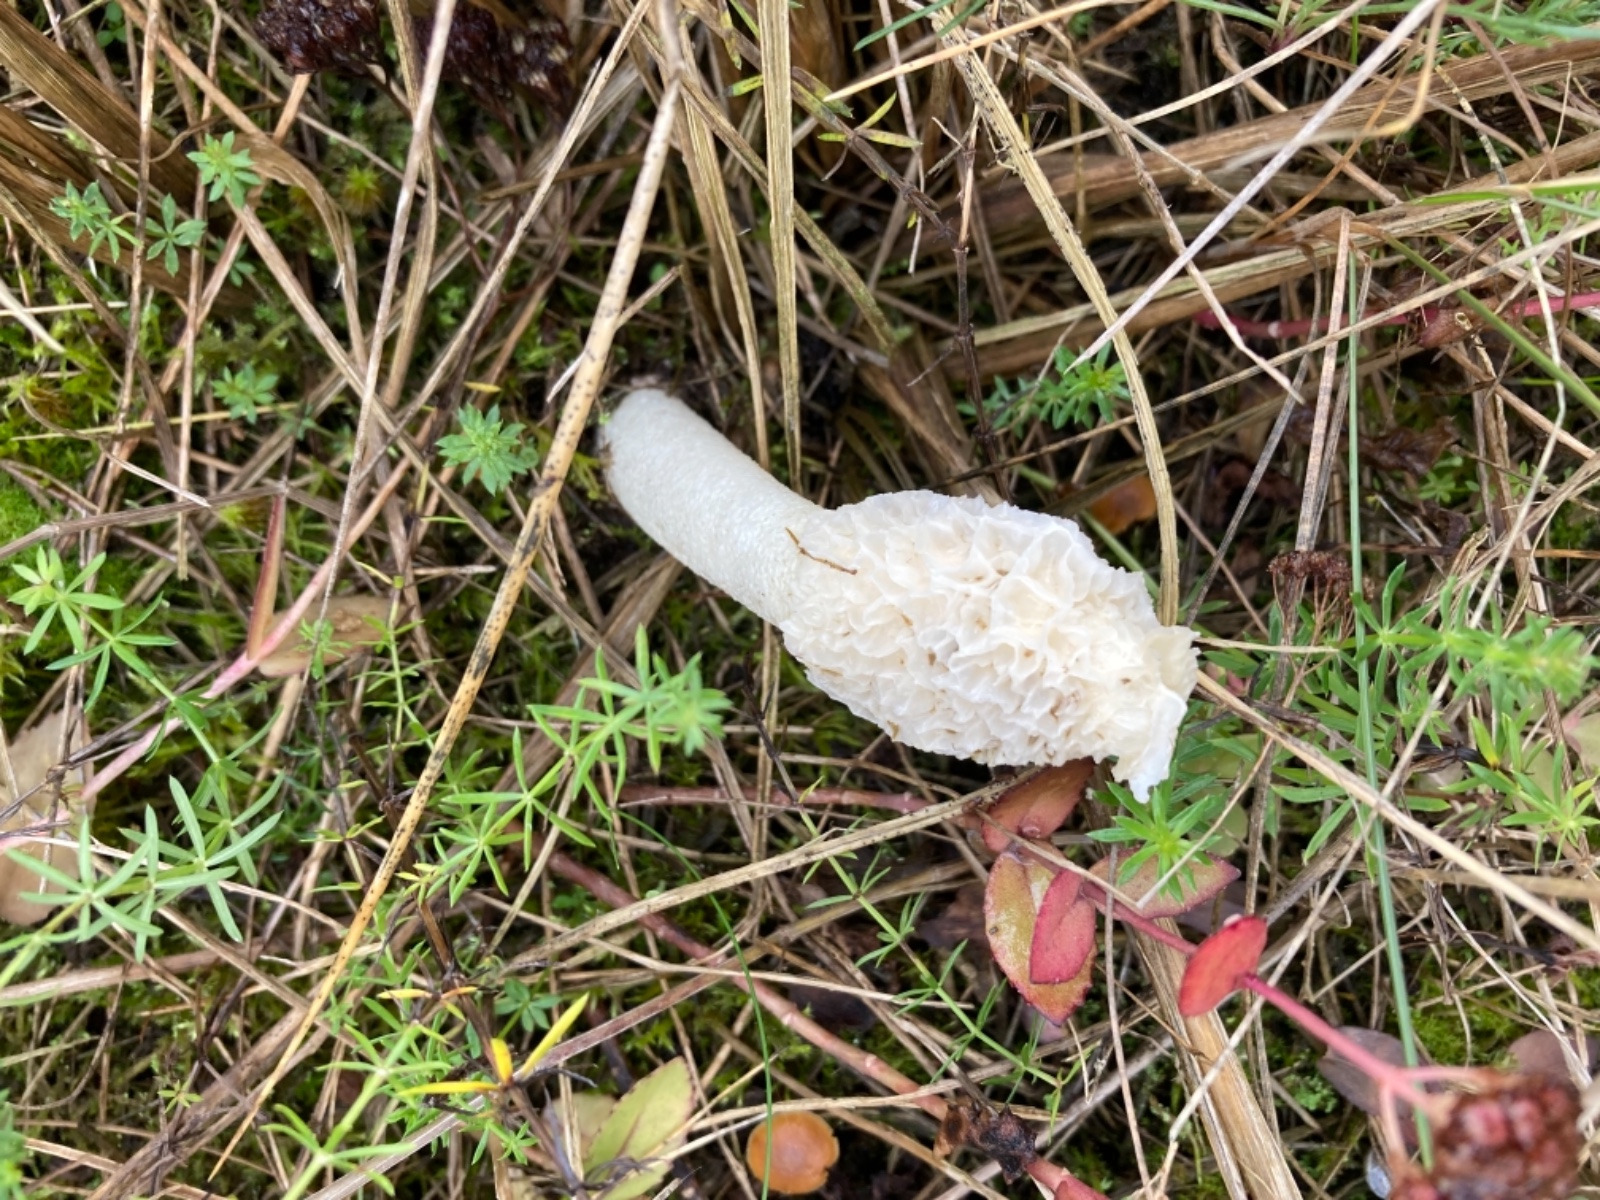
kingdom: Fungi
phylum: Basidiomycota
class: Agaricomycetes
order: Phallales
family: Phallaceae
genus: Phallus
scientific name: Phallus
